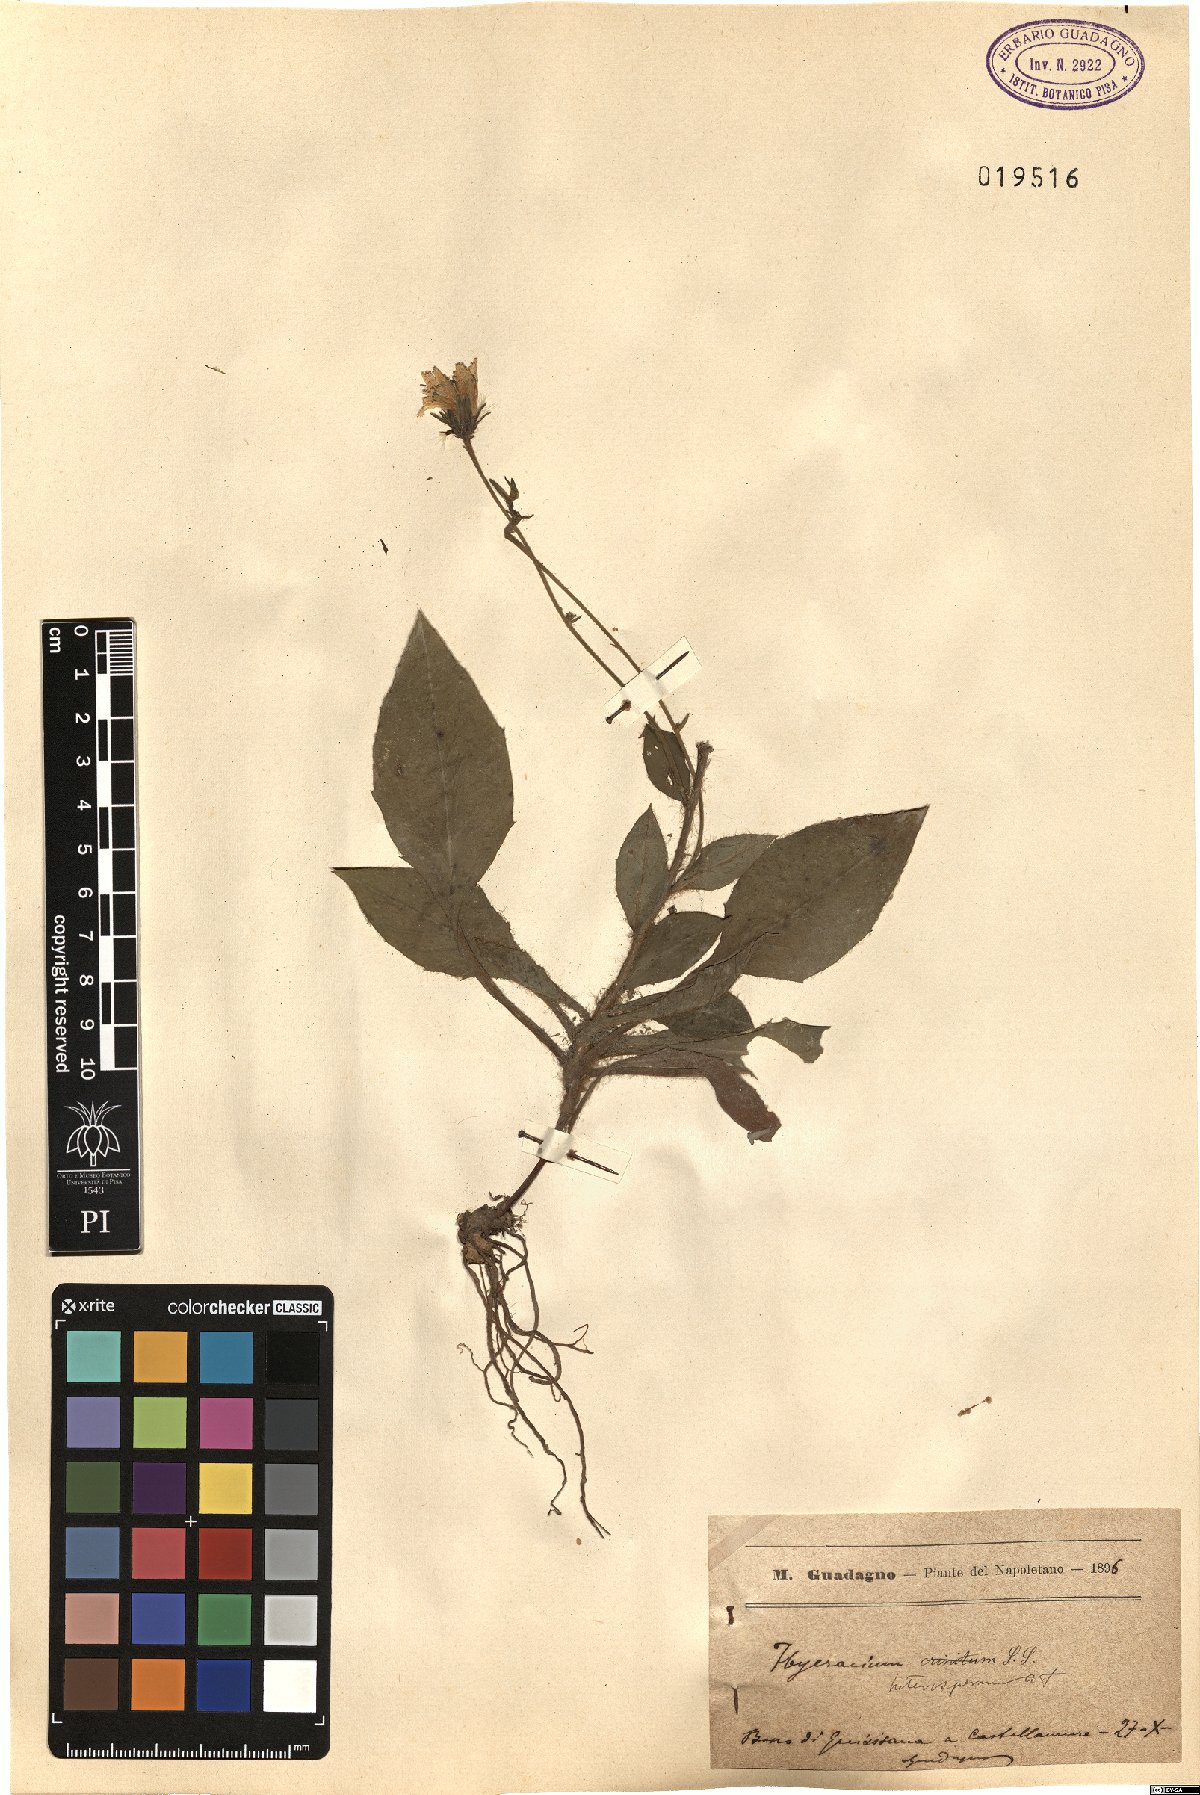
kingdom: Plantae
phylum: Tracheophyta
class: Magnoliopsida
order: Asterales
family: Asteraceae
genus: Hieracium
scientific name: Hieracium racemosum
